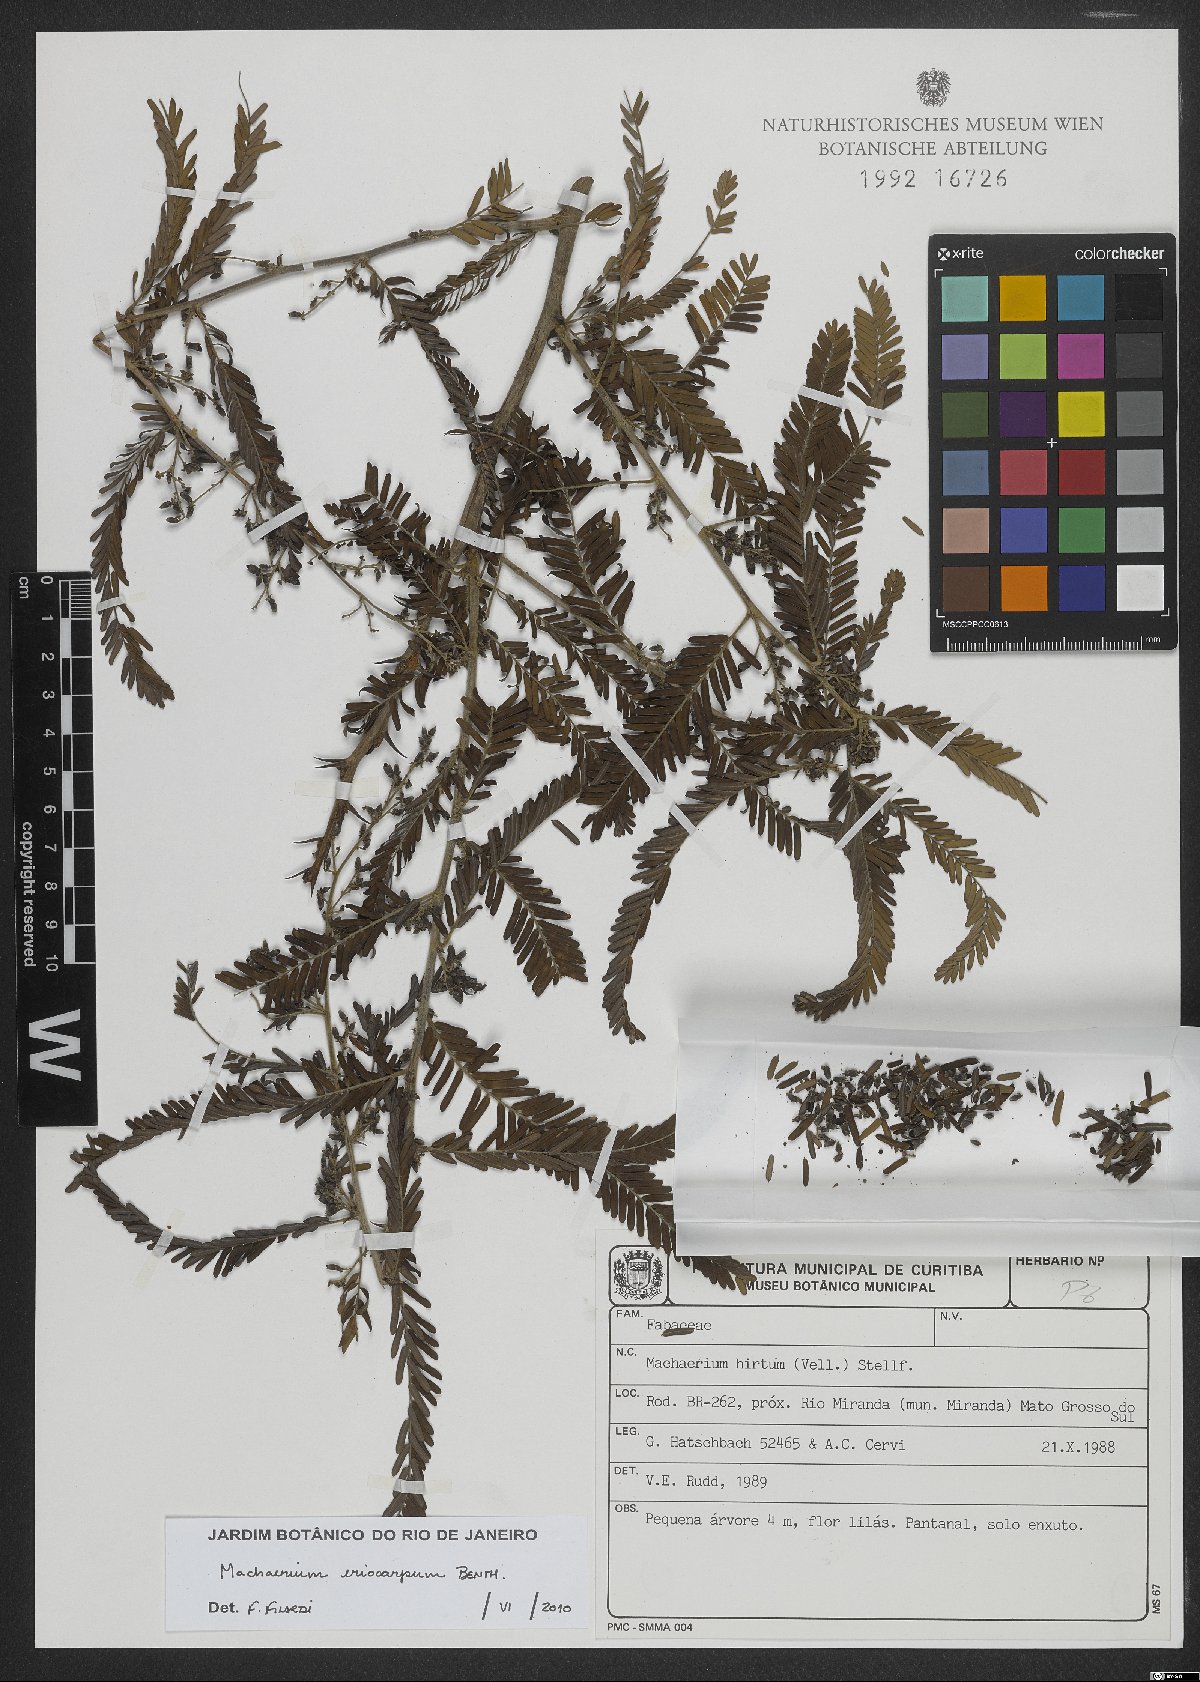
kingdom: Plantae
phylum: Tracheophyta
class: Magnoliopsida
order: Fabales
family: Fabaceae
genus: Machaerium
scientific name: Machaerium eriocarpum
